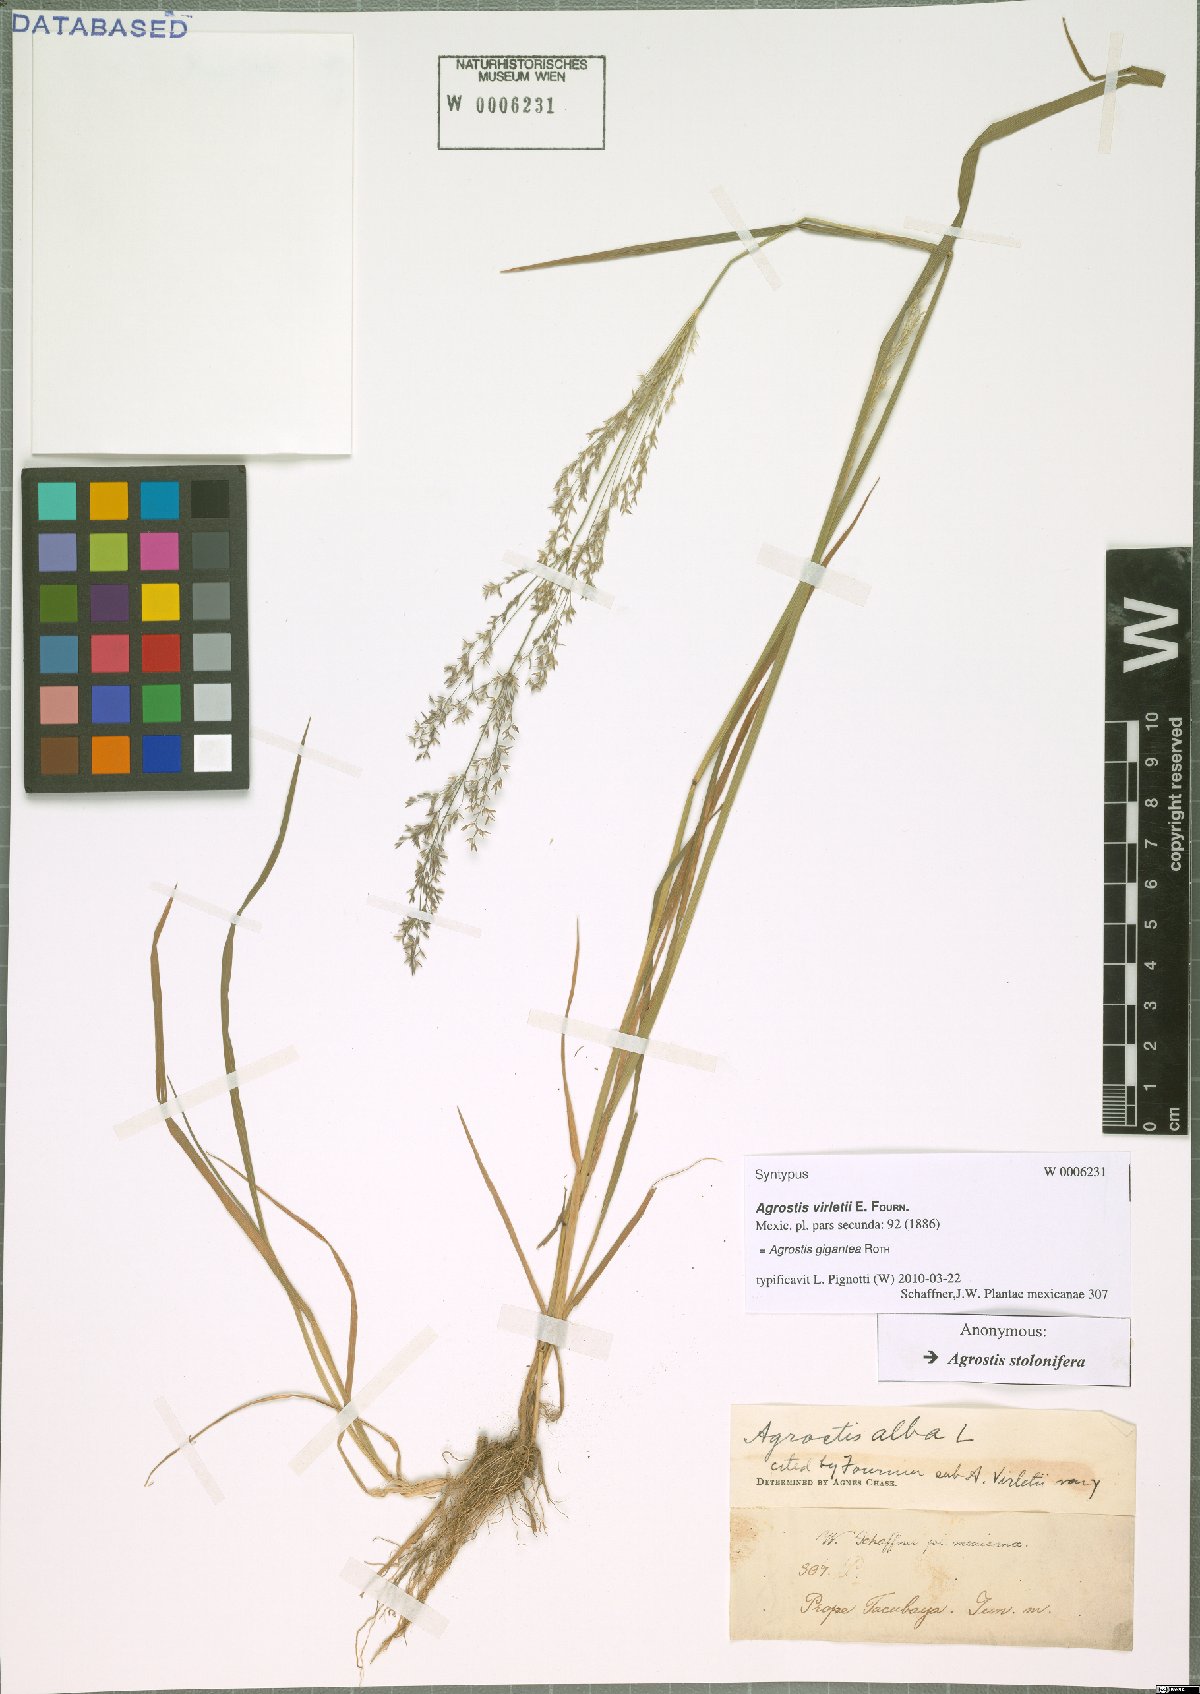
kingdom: Plantae
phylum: Tracheophyta
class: Liliopsida
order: Poales
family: Poaceae
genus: Agrostis
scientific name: Agrostis gigantea
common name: Black bent
